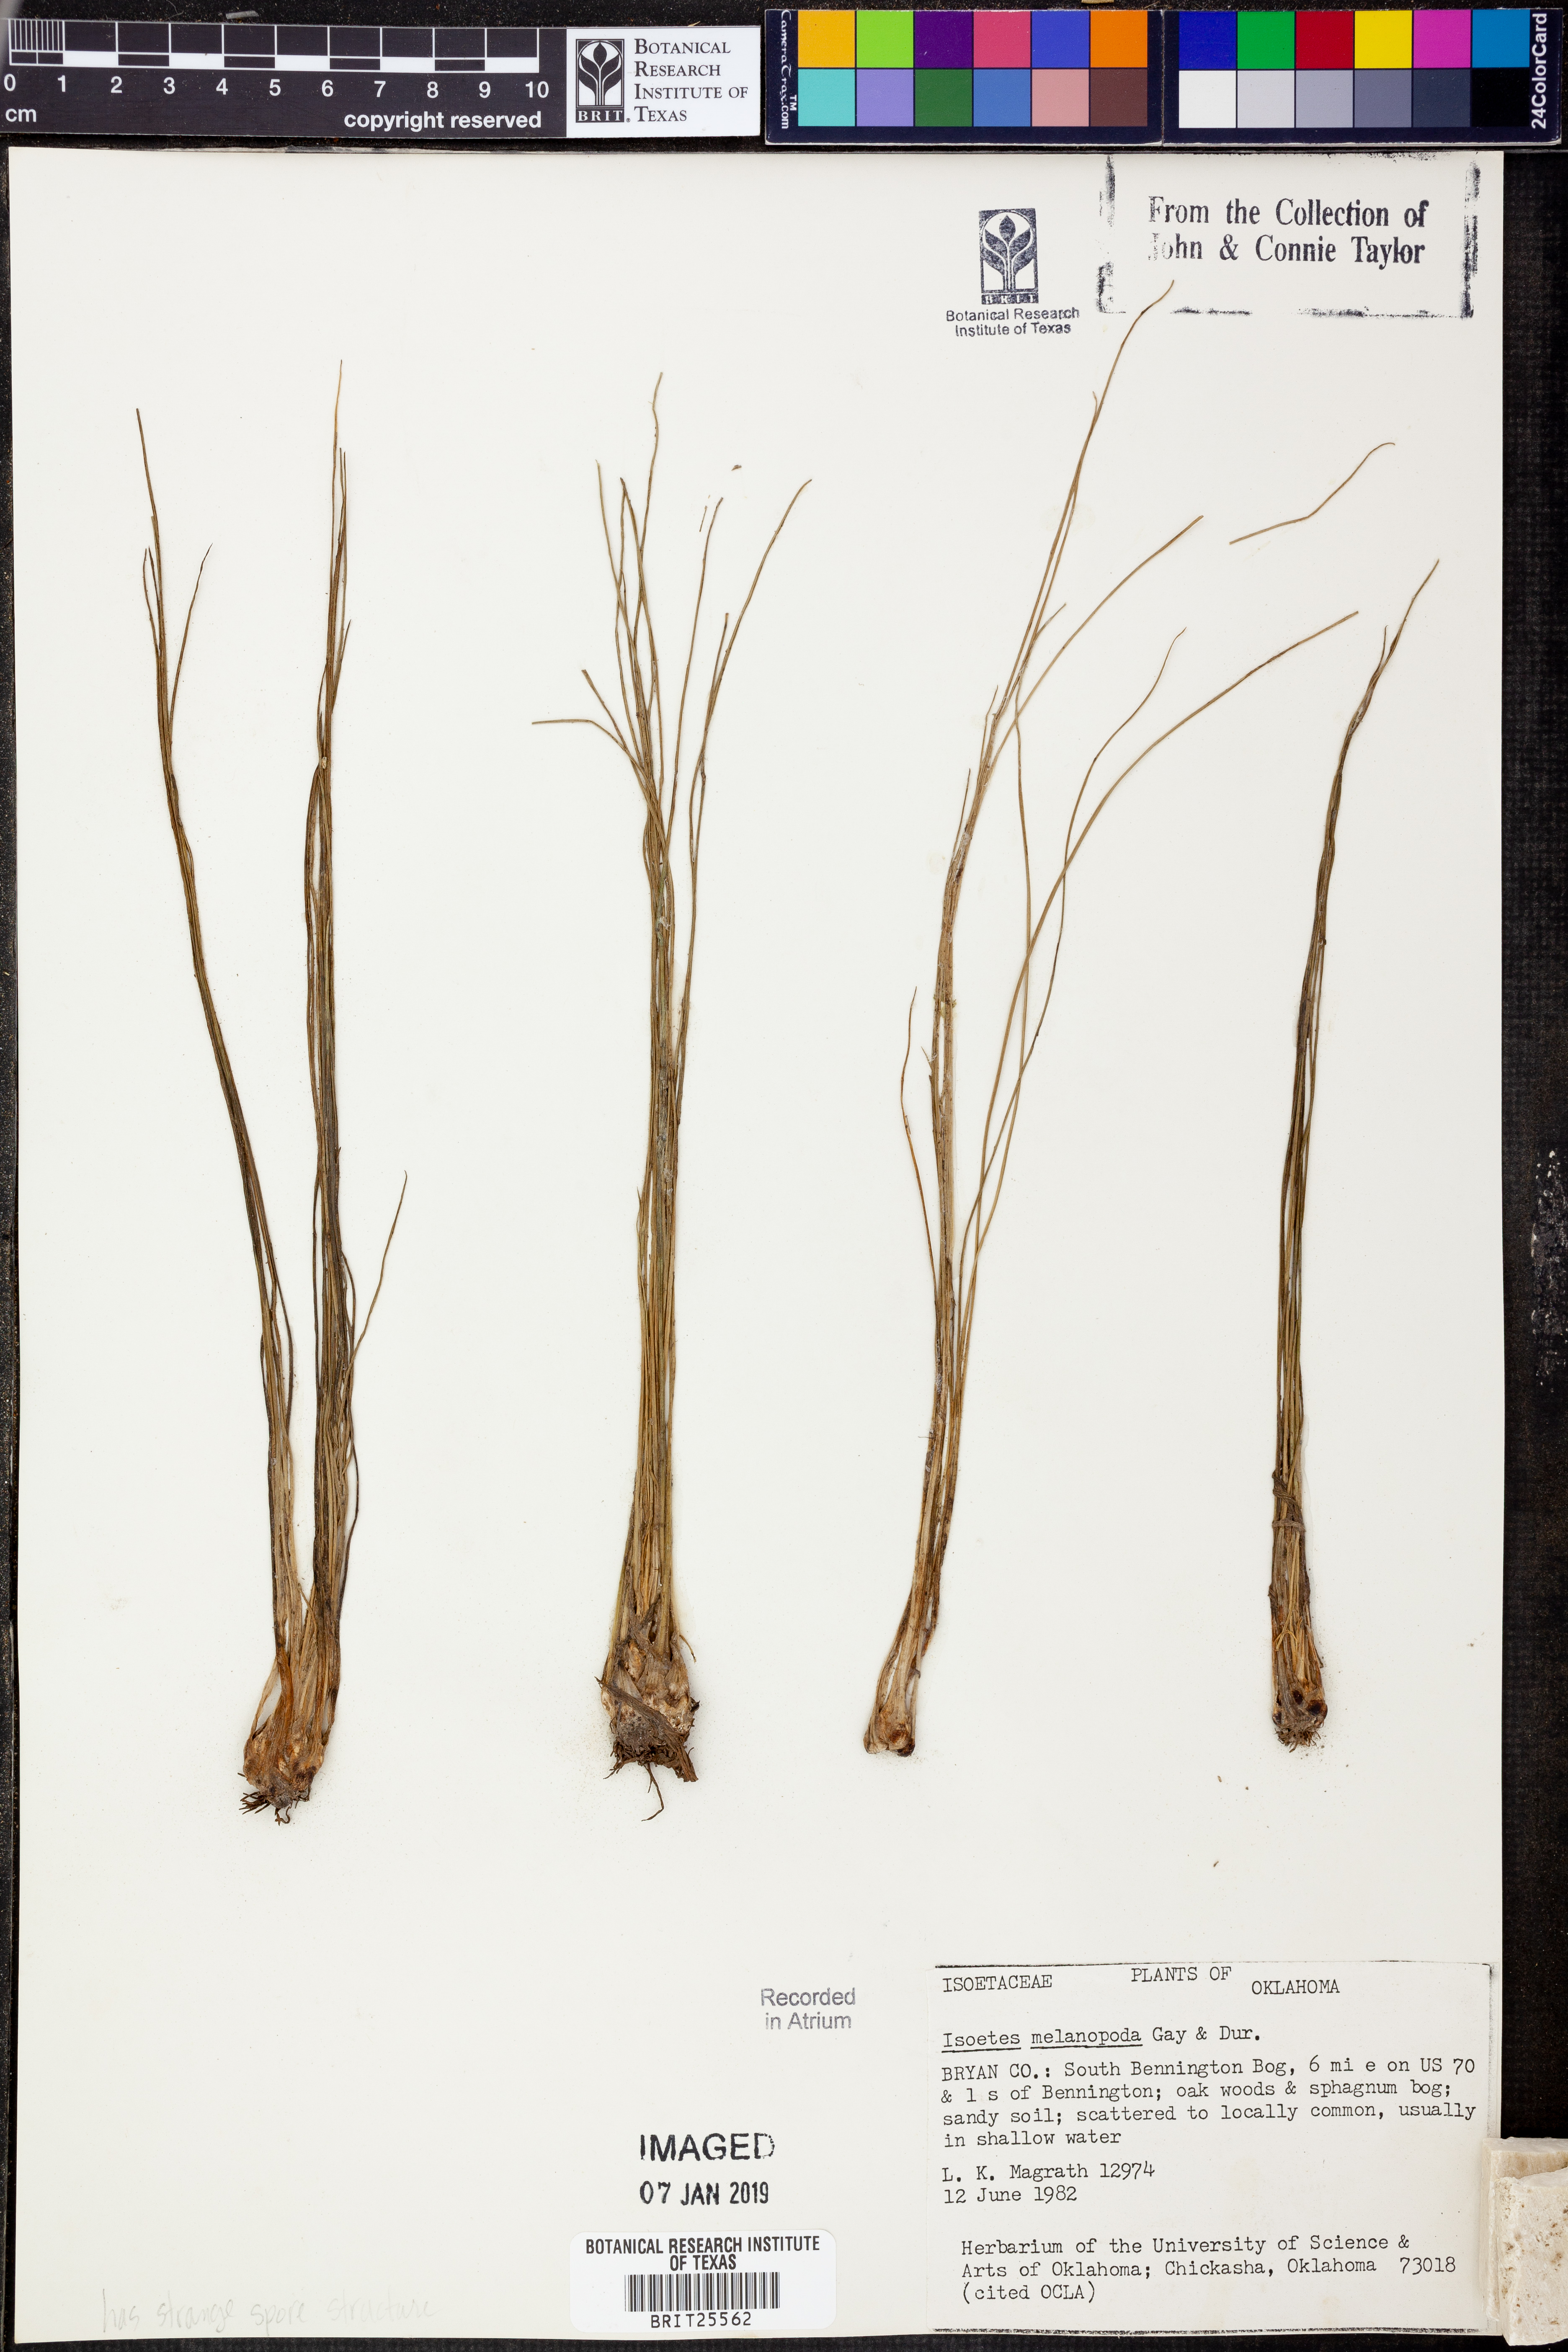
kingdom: Plantae
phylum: Tracheophyta
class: Lycopodiopsida
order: Isoetales
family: Isoetaceae
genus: Isoetes
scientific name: Isoetes melanopoda
